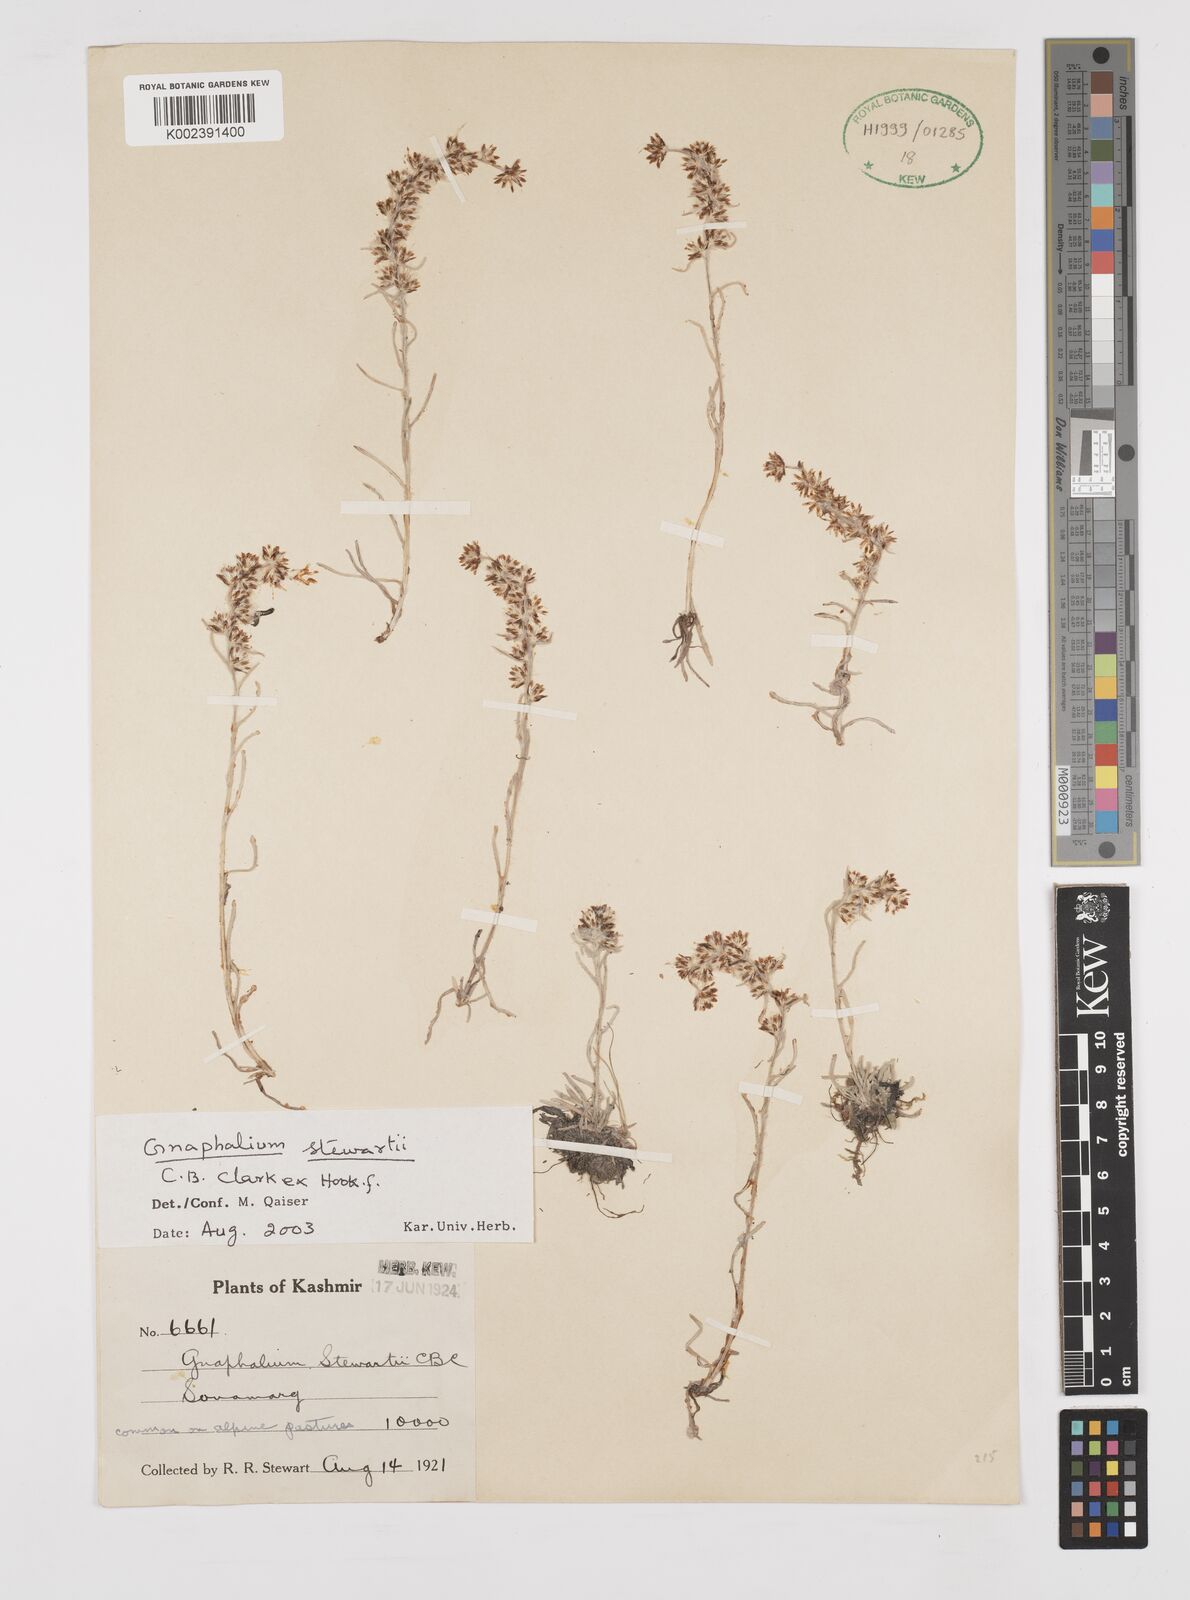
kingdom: Plantae
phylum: Tracheophyta
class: Magnoliopsida
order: Asterales
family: Asteraceae
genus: Gnaphalium
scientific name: Gnaphalium stewartii
